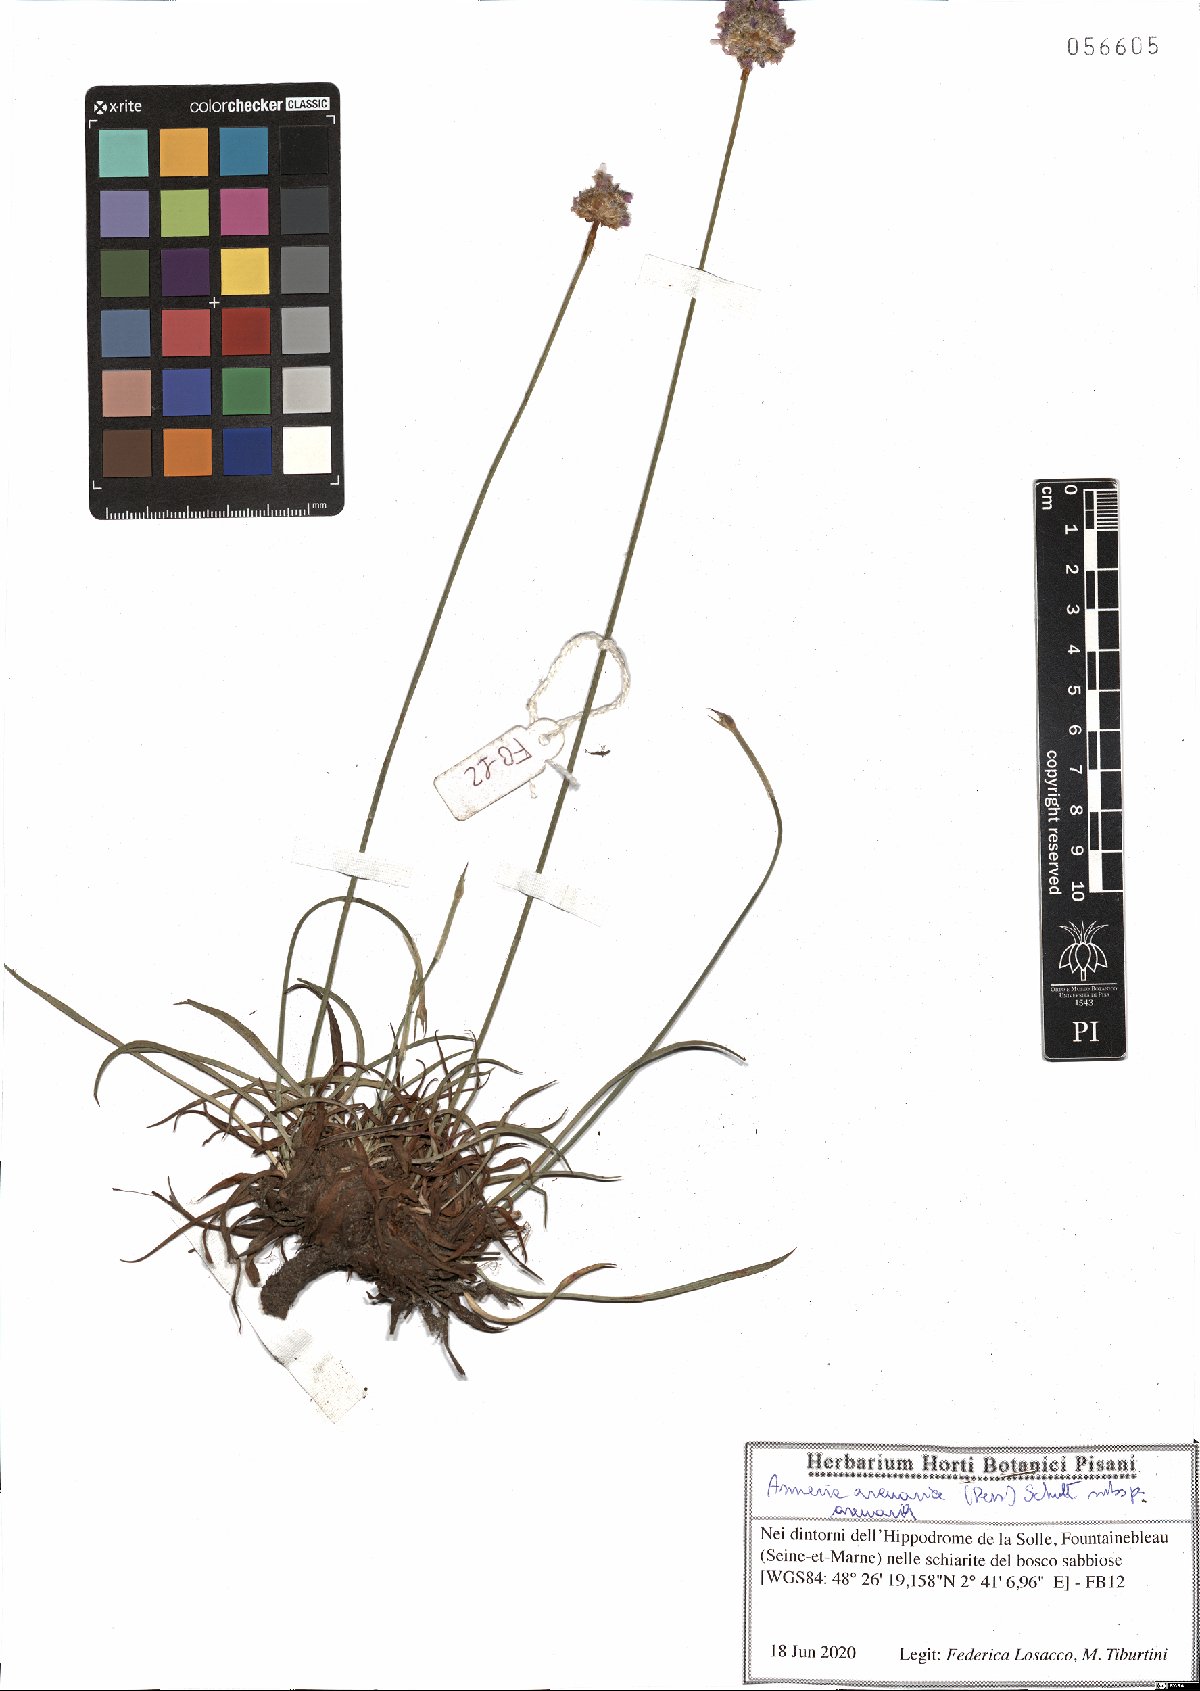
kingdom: Plantae
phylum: Tracheophyta
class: Magnoliopsida
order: Caryophyllales
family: Plumbaginaceae
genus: Armeria
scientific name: Armeria arenaria
